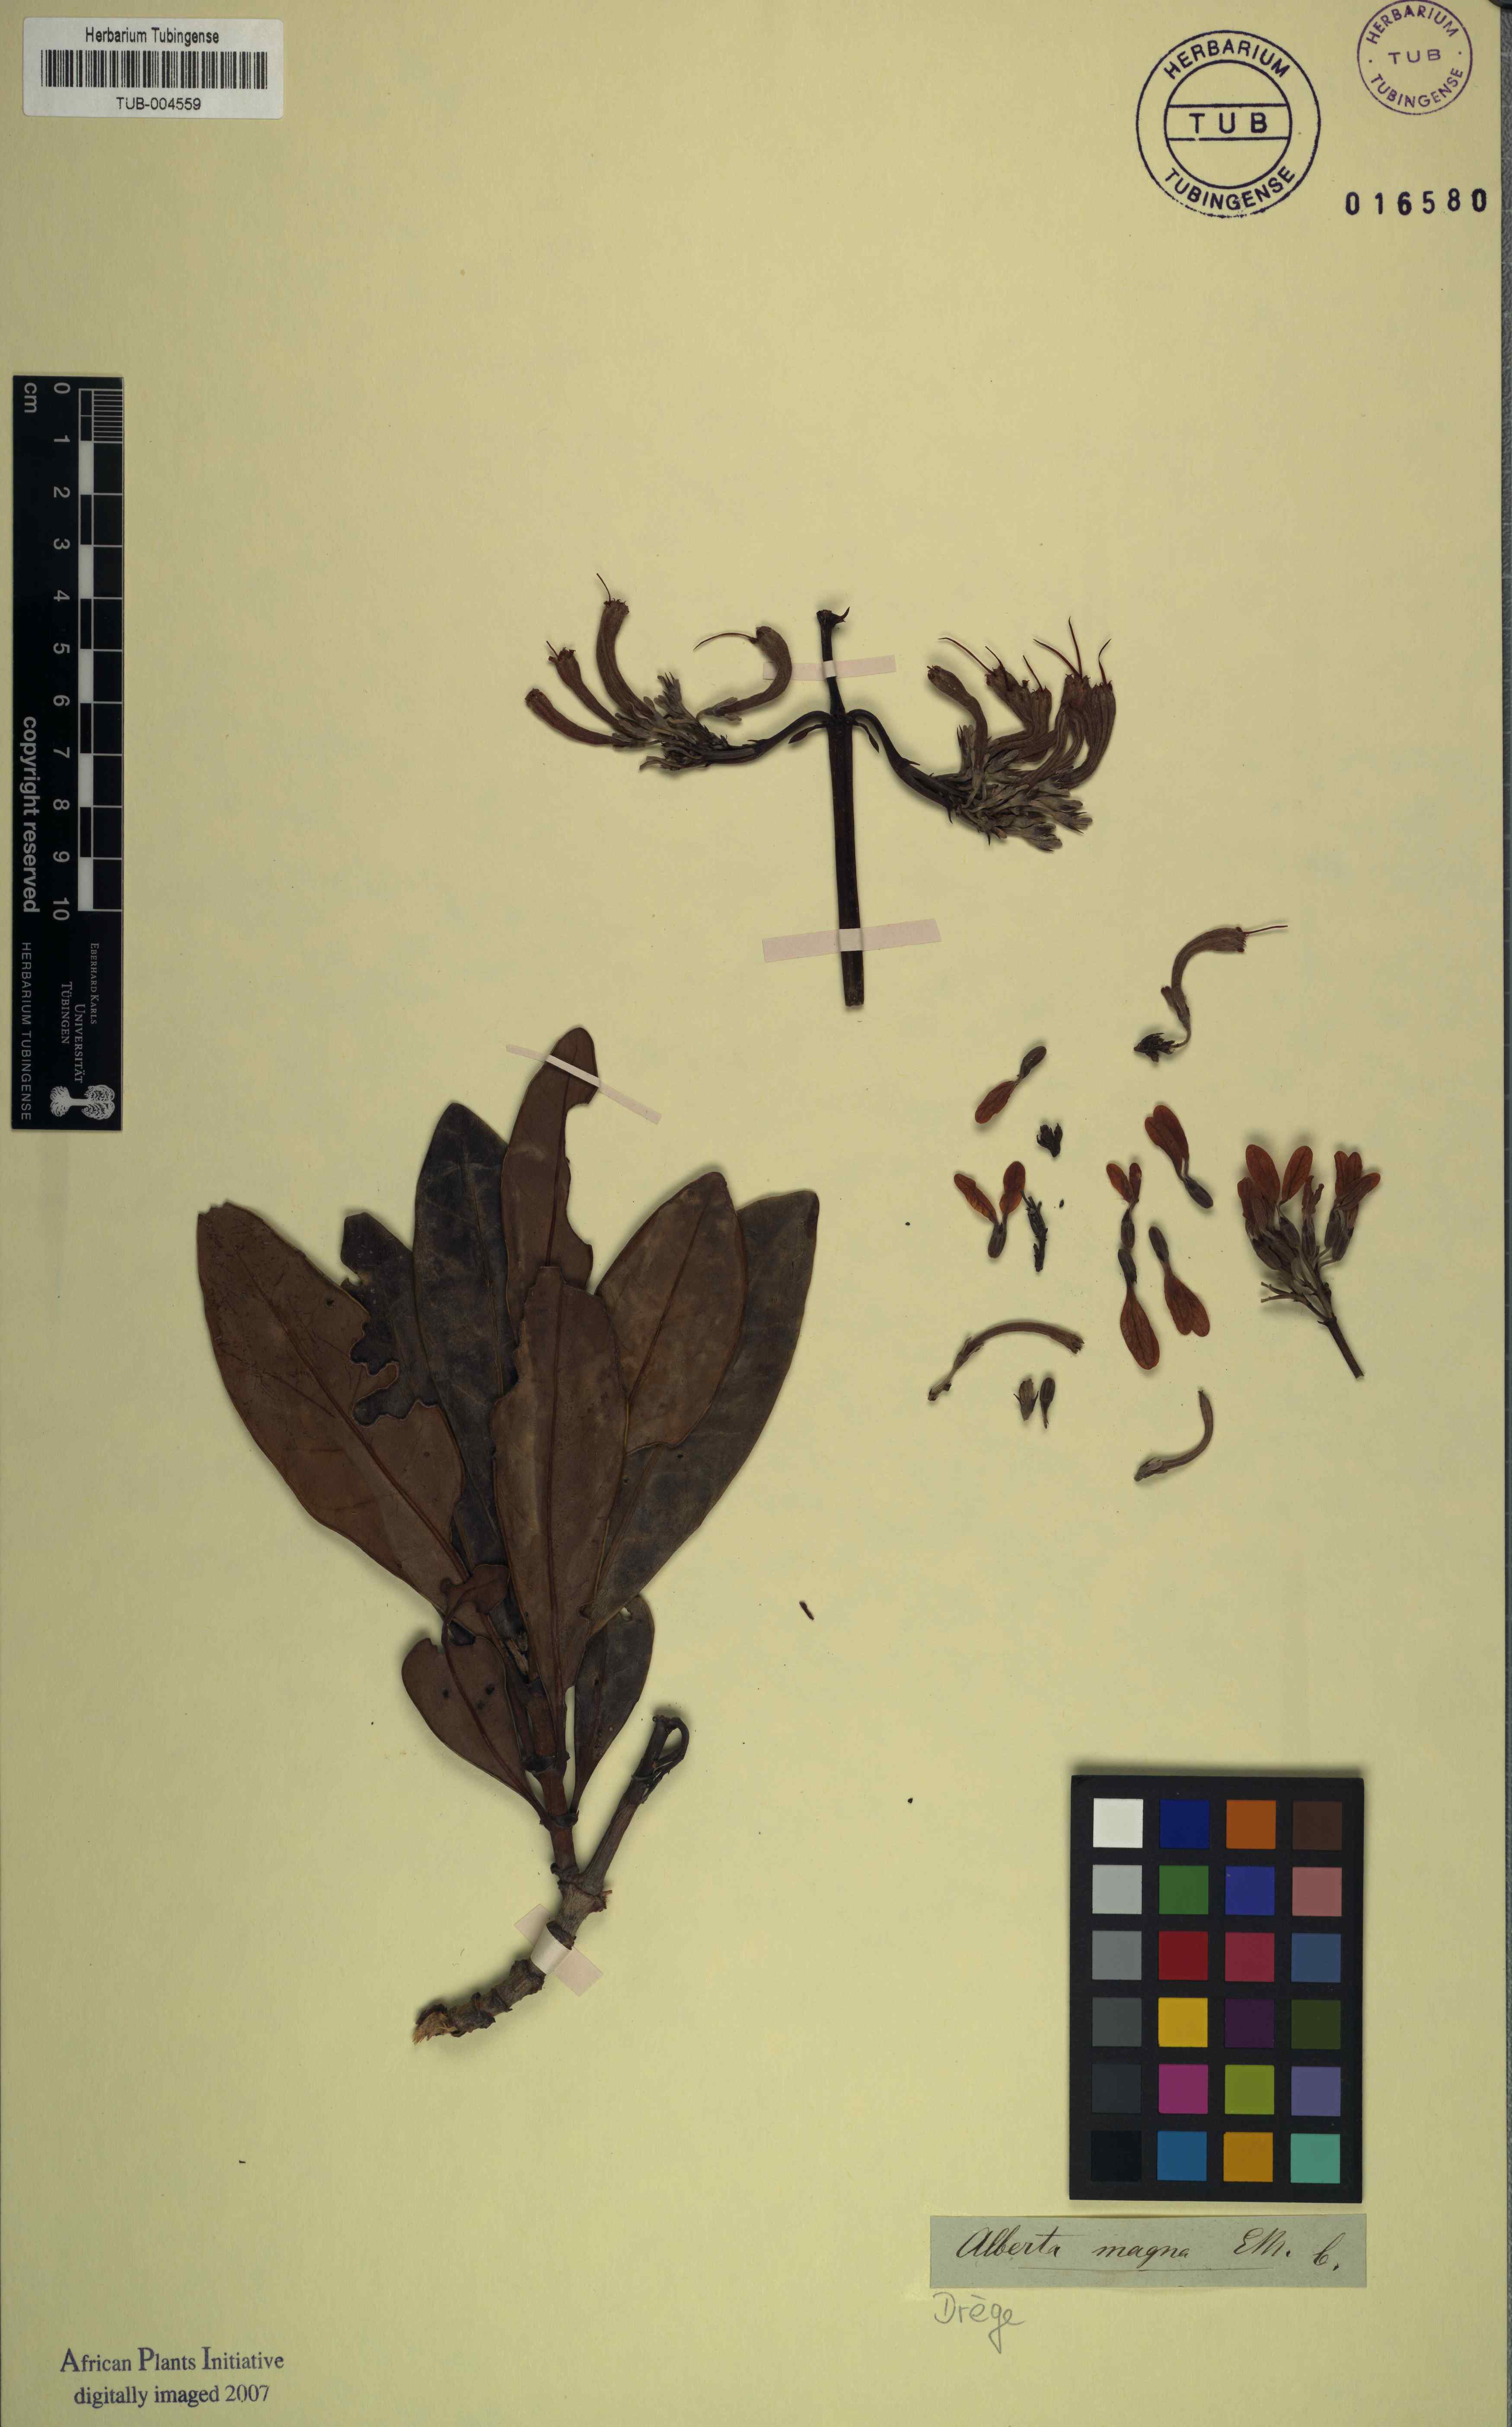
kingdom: Plantae
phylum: Tracheophyta
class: Magnoliopsida
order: Gentianales
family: Rubiaceae
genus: Alberta
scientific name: Alberta magna
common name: Magnificent-flame
